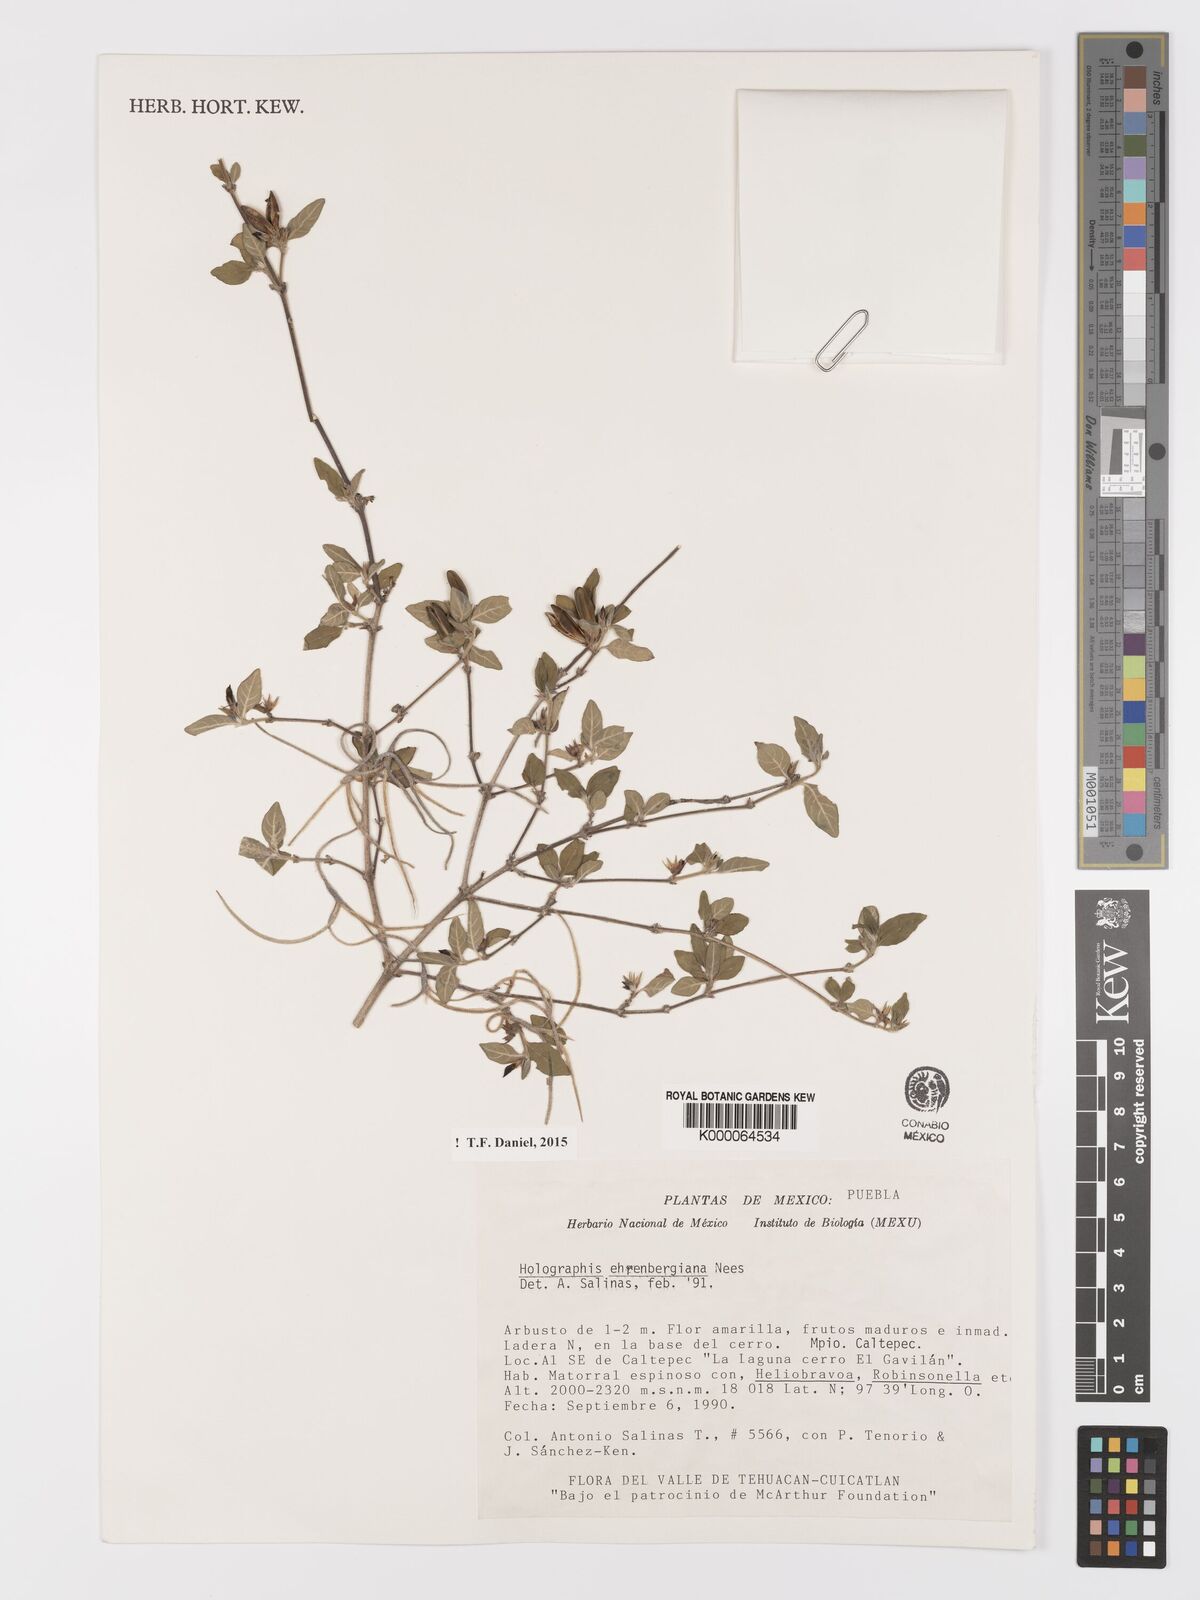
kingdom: Plantae
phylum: Tracheophyta
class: Magnoliopsida
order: Lamiales
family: Acanthaceae
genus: Holographis
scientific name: Holographis ehrenbergiana
